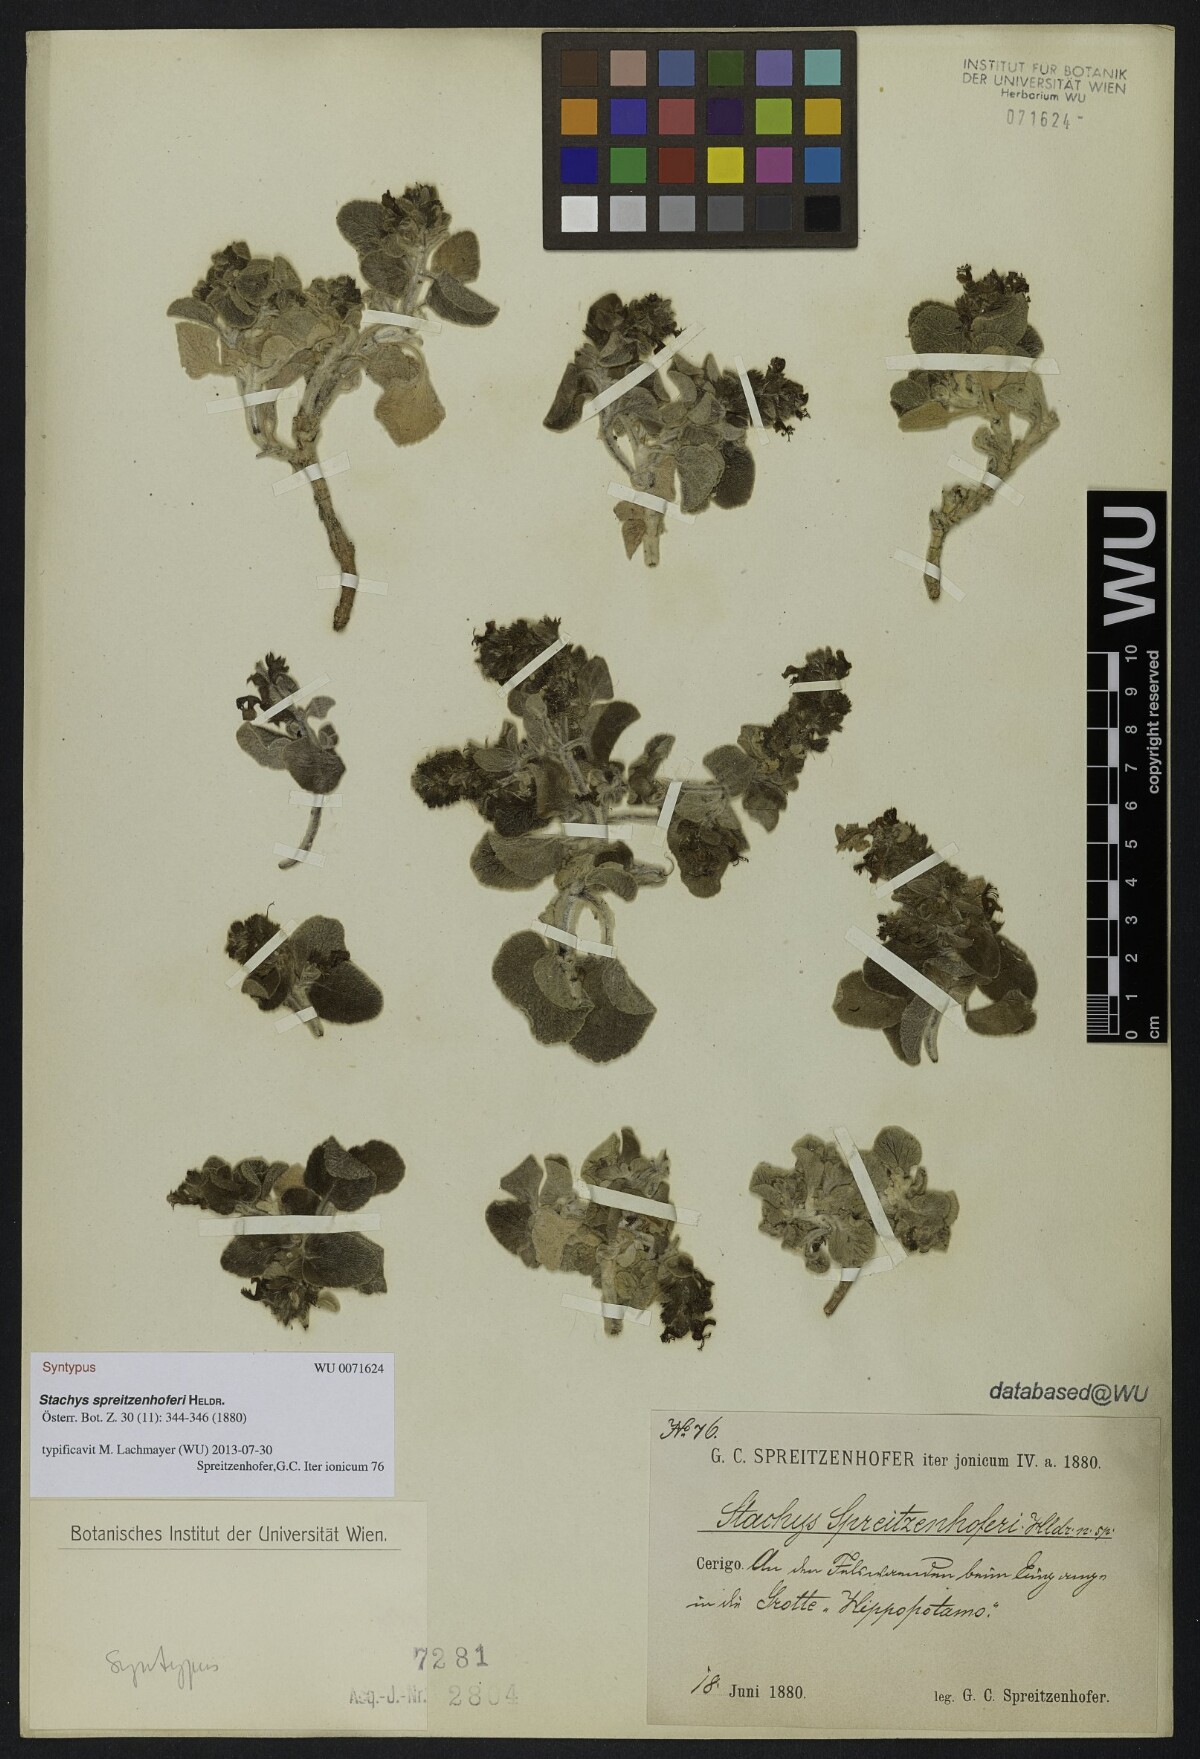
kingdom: Plantae
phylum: Tracheophyta
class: Magnoliopsida
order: Lamiales
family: Lamiaceae
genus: Stachys
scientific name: Stachys spreitzenhoferi
